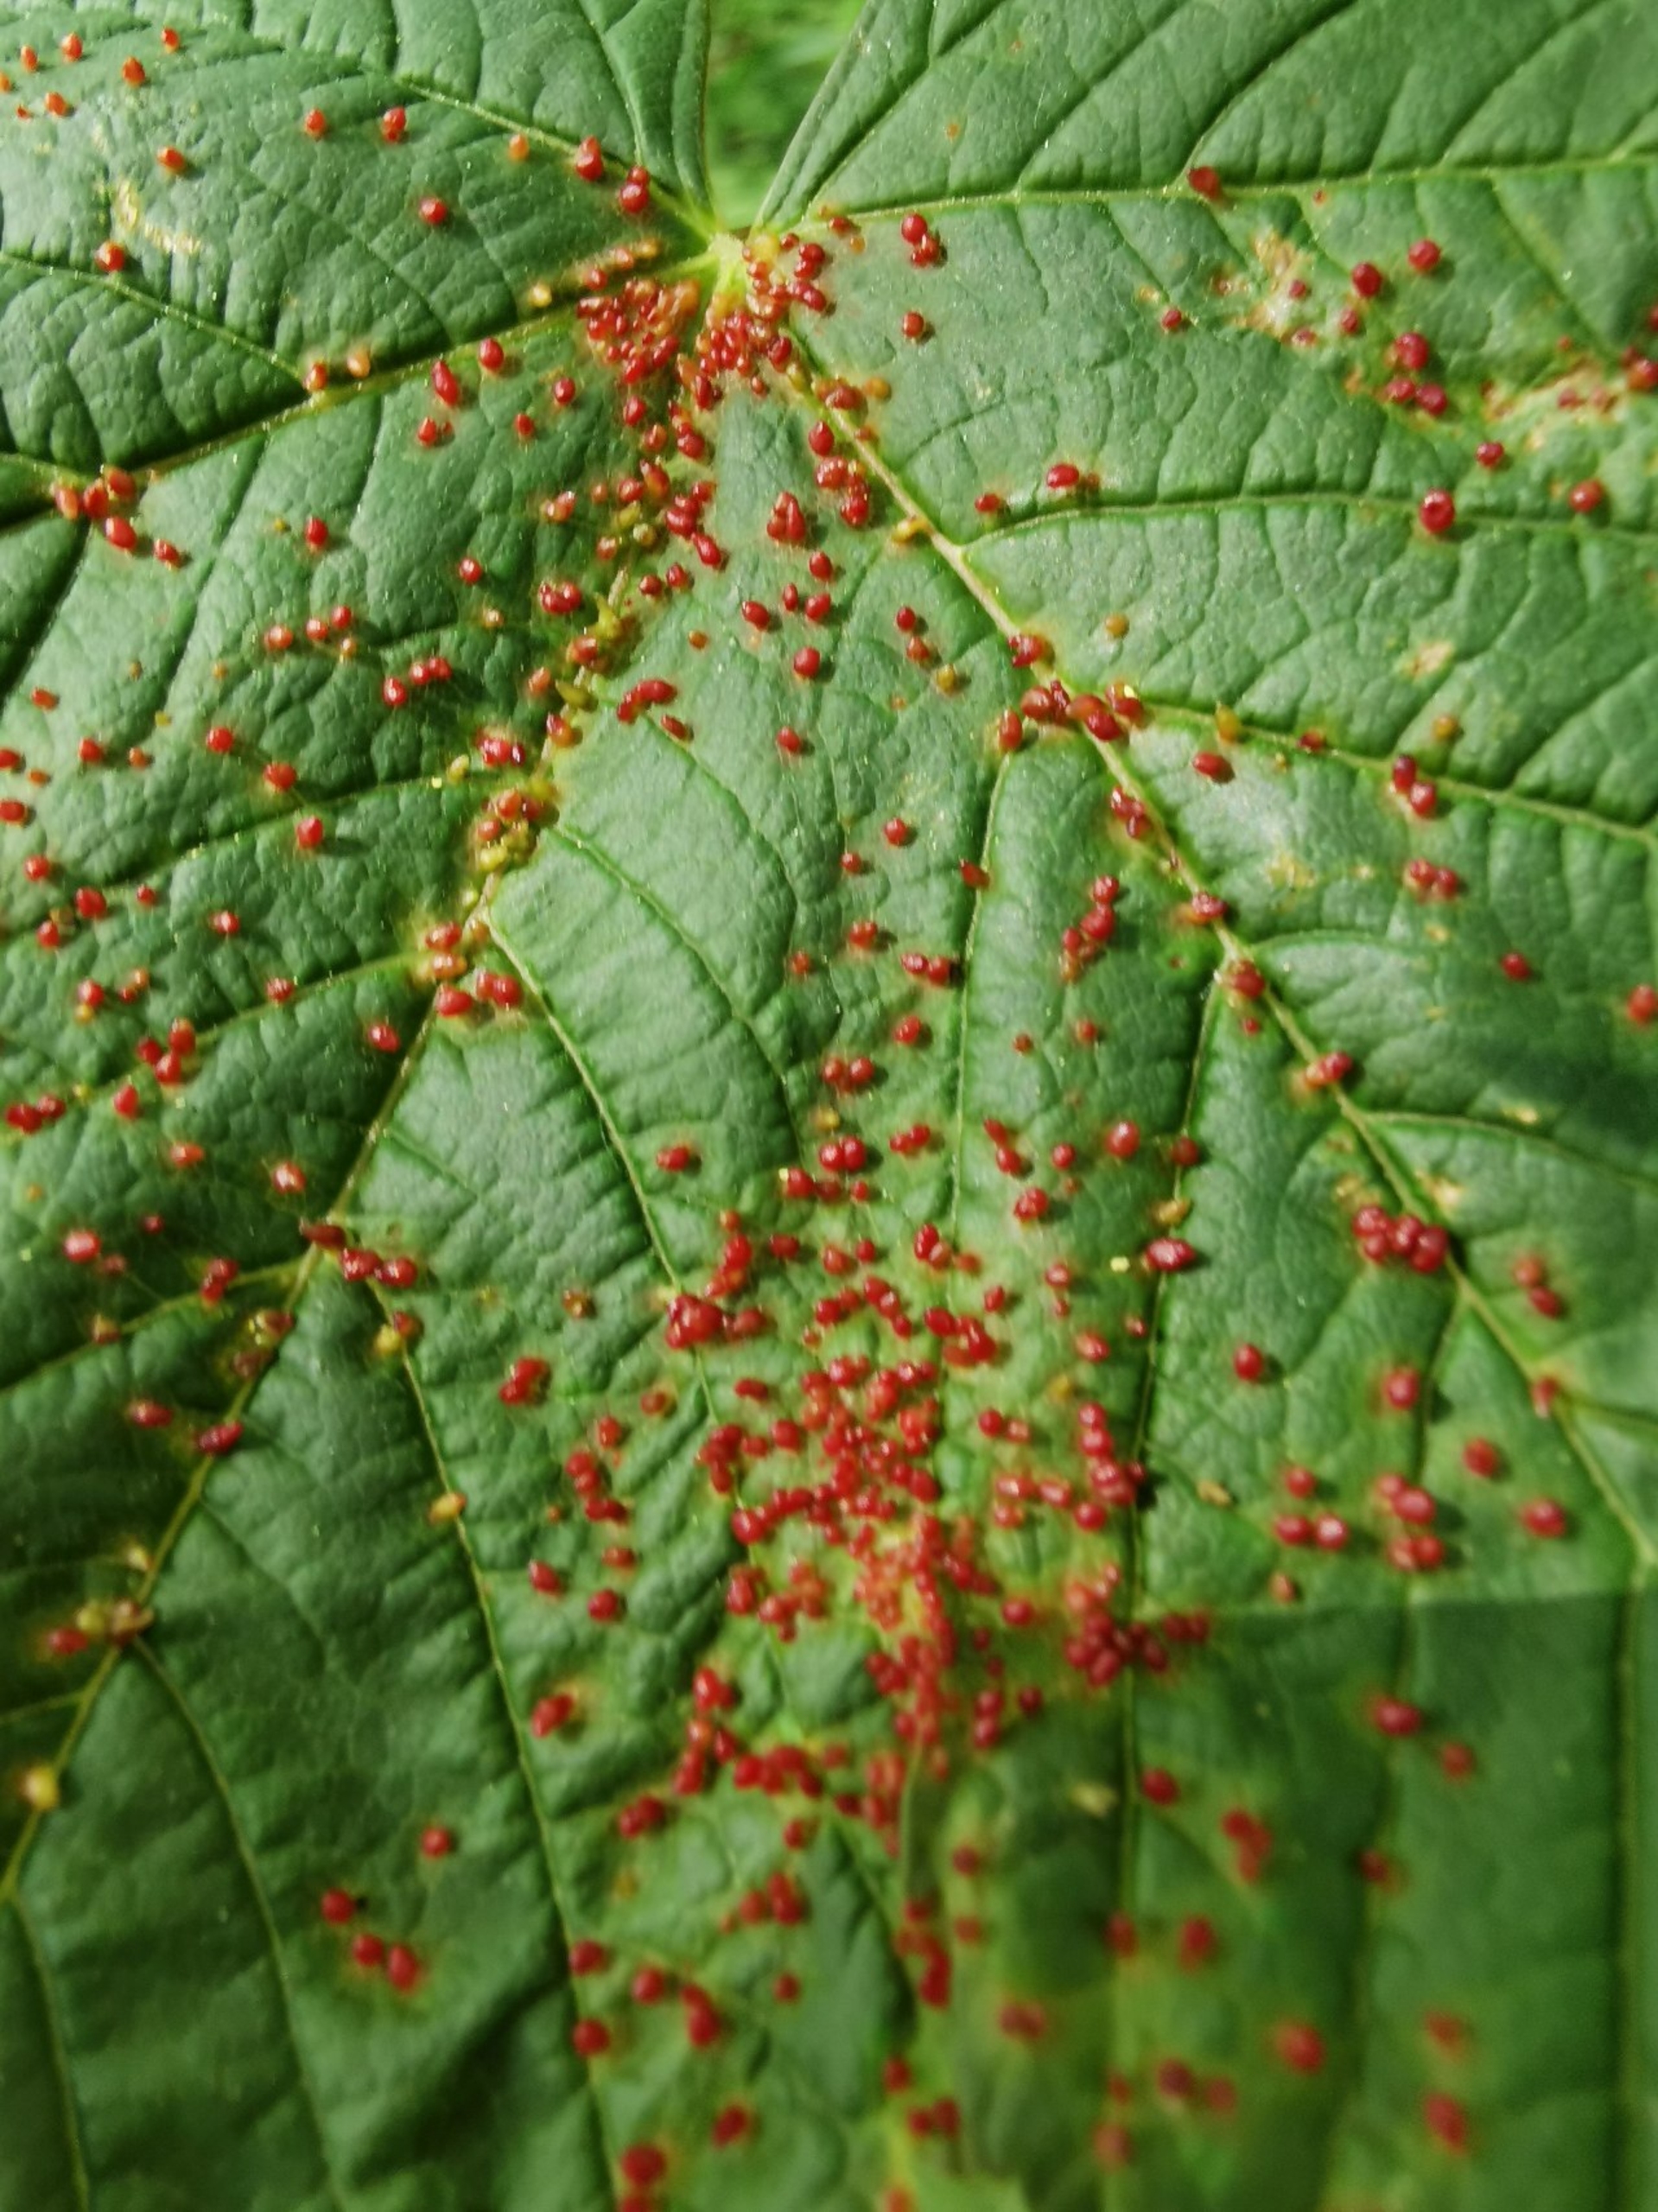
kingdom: Animalia
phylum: Arthropoda
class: Arachnida
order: Trombidiformes
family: Eriophyidae
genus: Aceria
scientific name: Aceria cephaloneus
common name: Ahornvortegalmide
